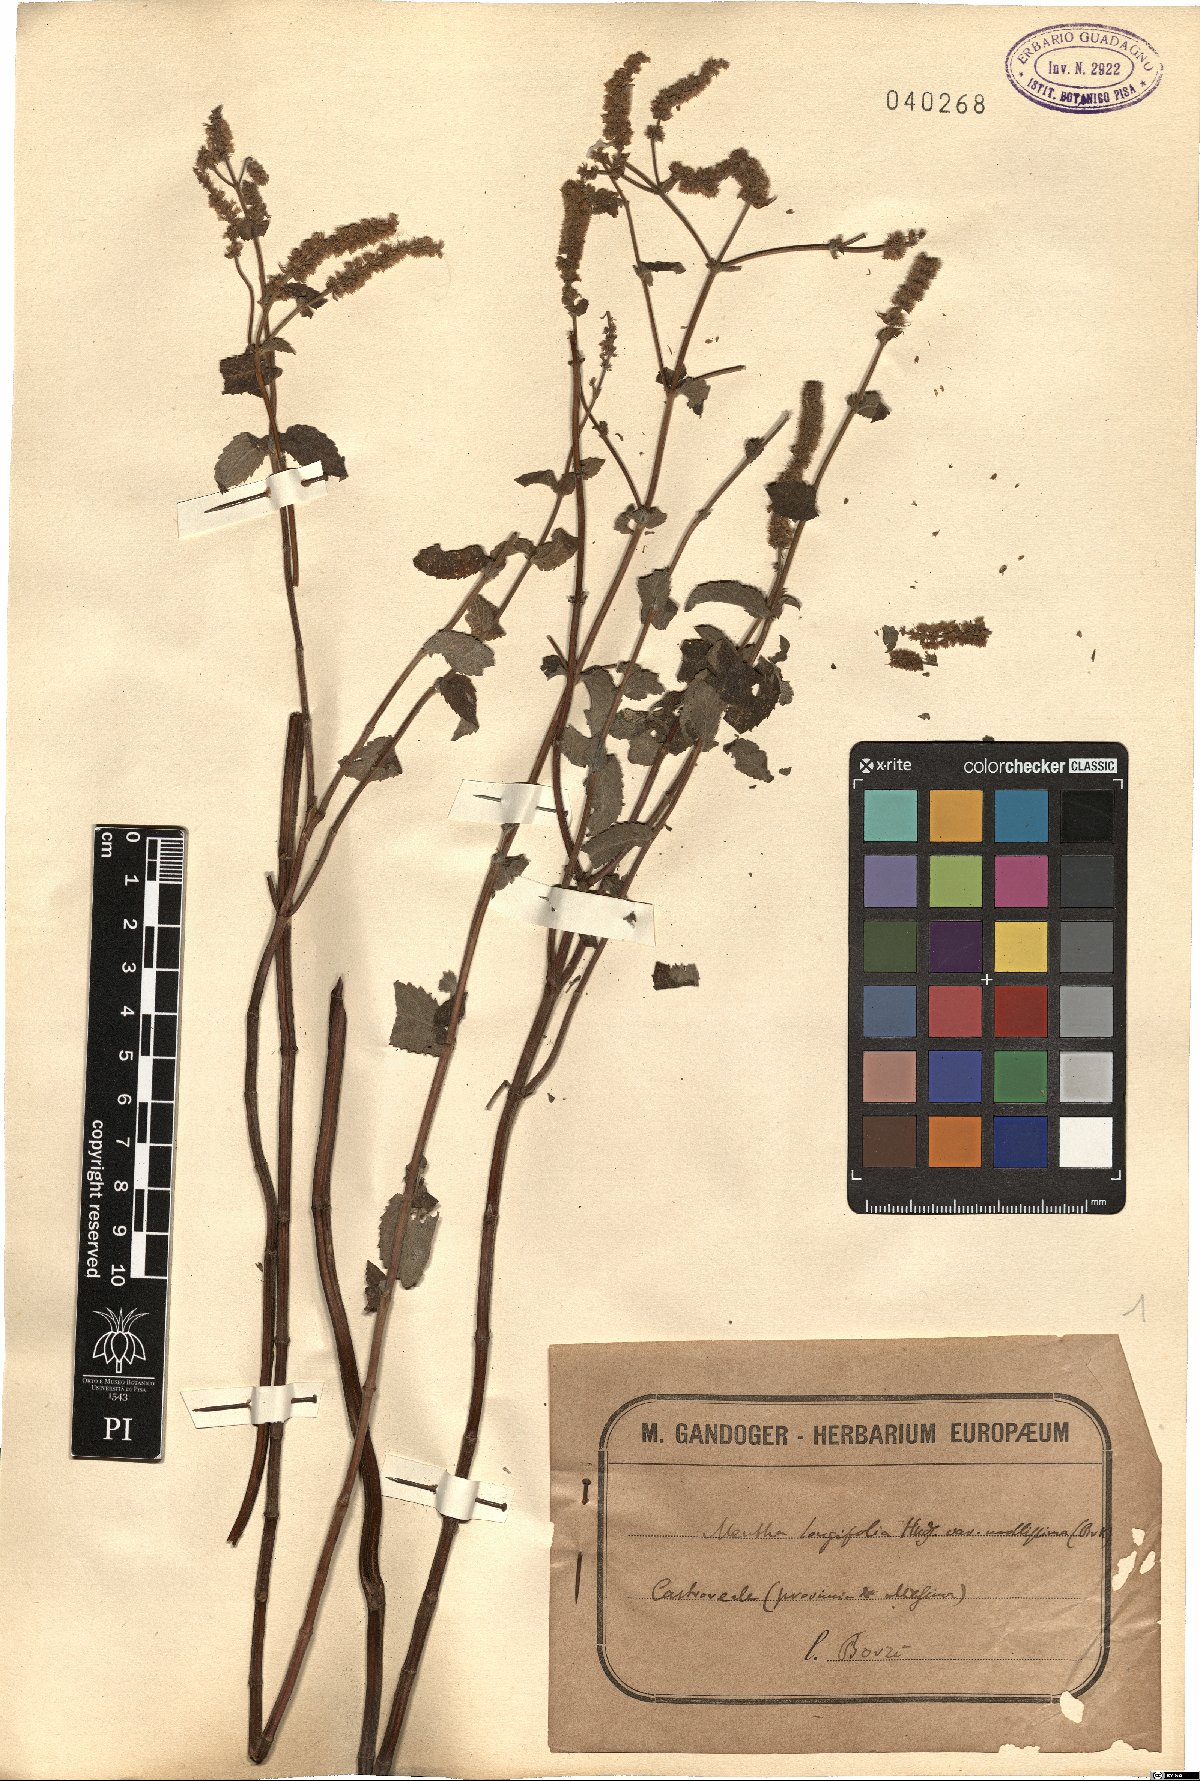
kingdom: Plantae
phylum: Tracheophyta
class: Magnoliopsida
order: Lamiales
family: Lamiaceae
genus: Mentha
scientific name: Mentha longifolia
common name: Horse mint
